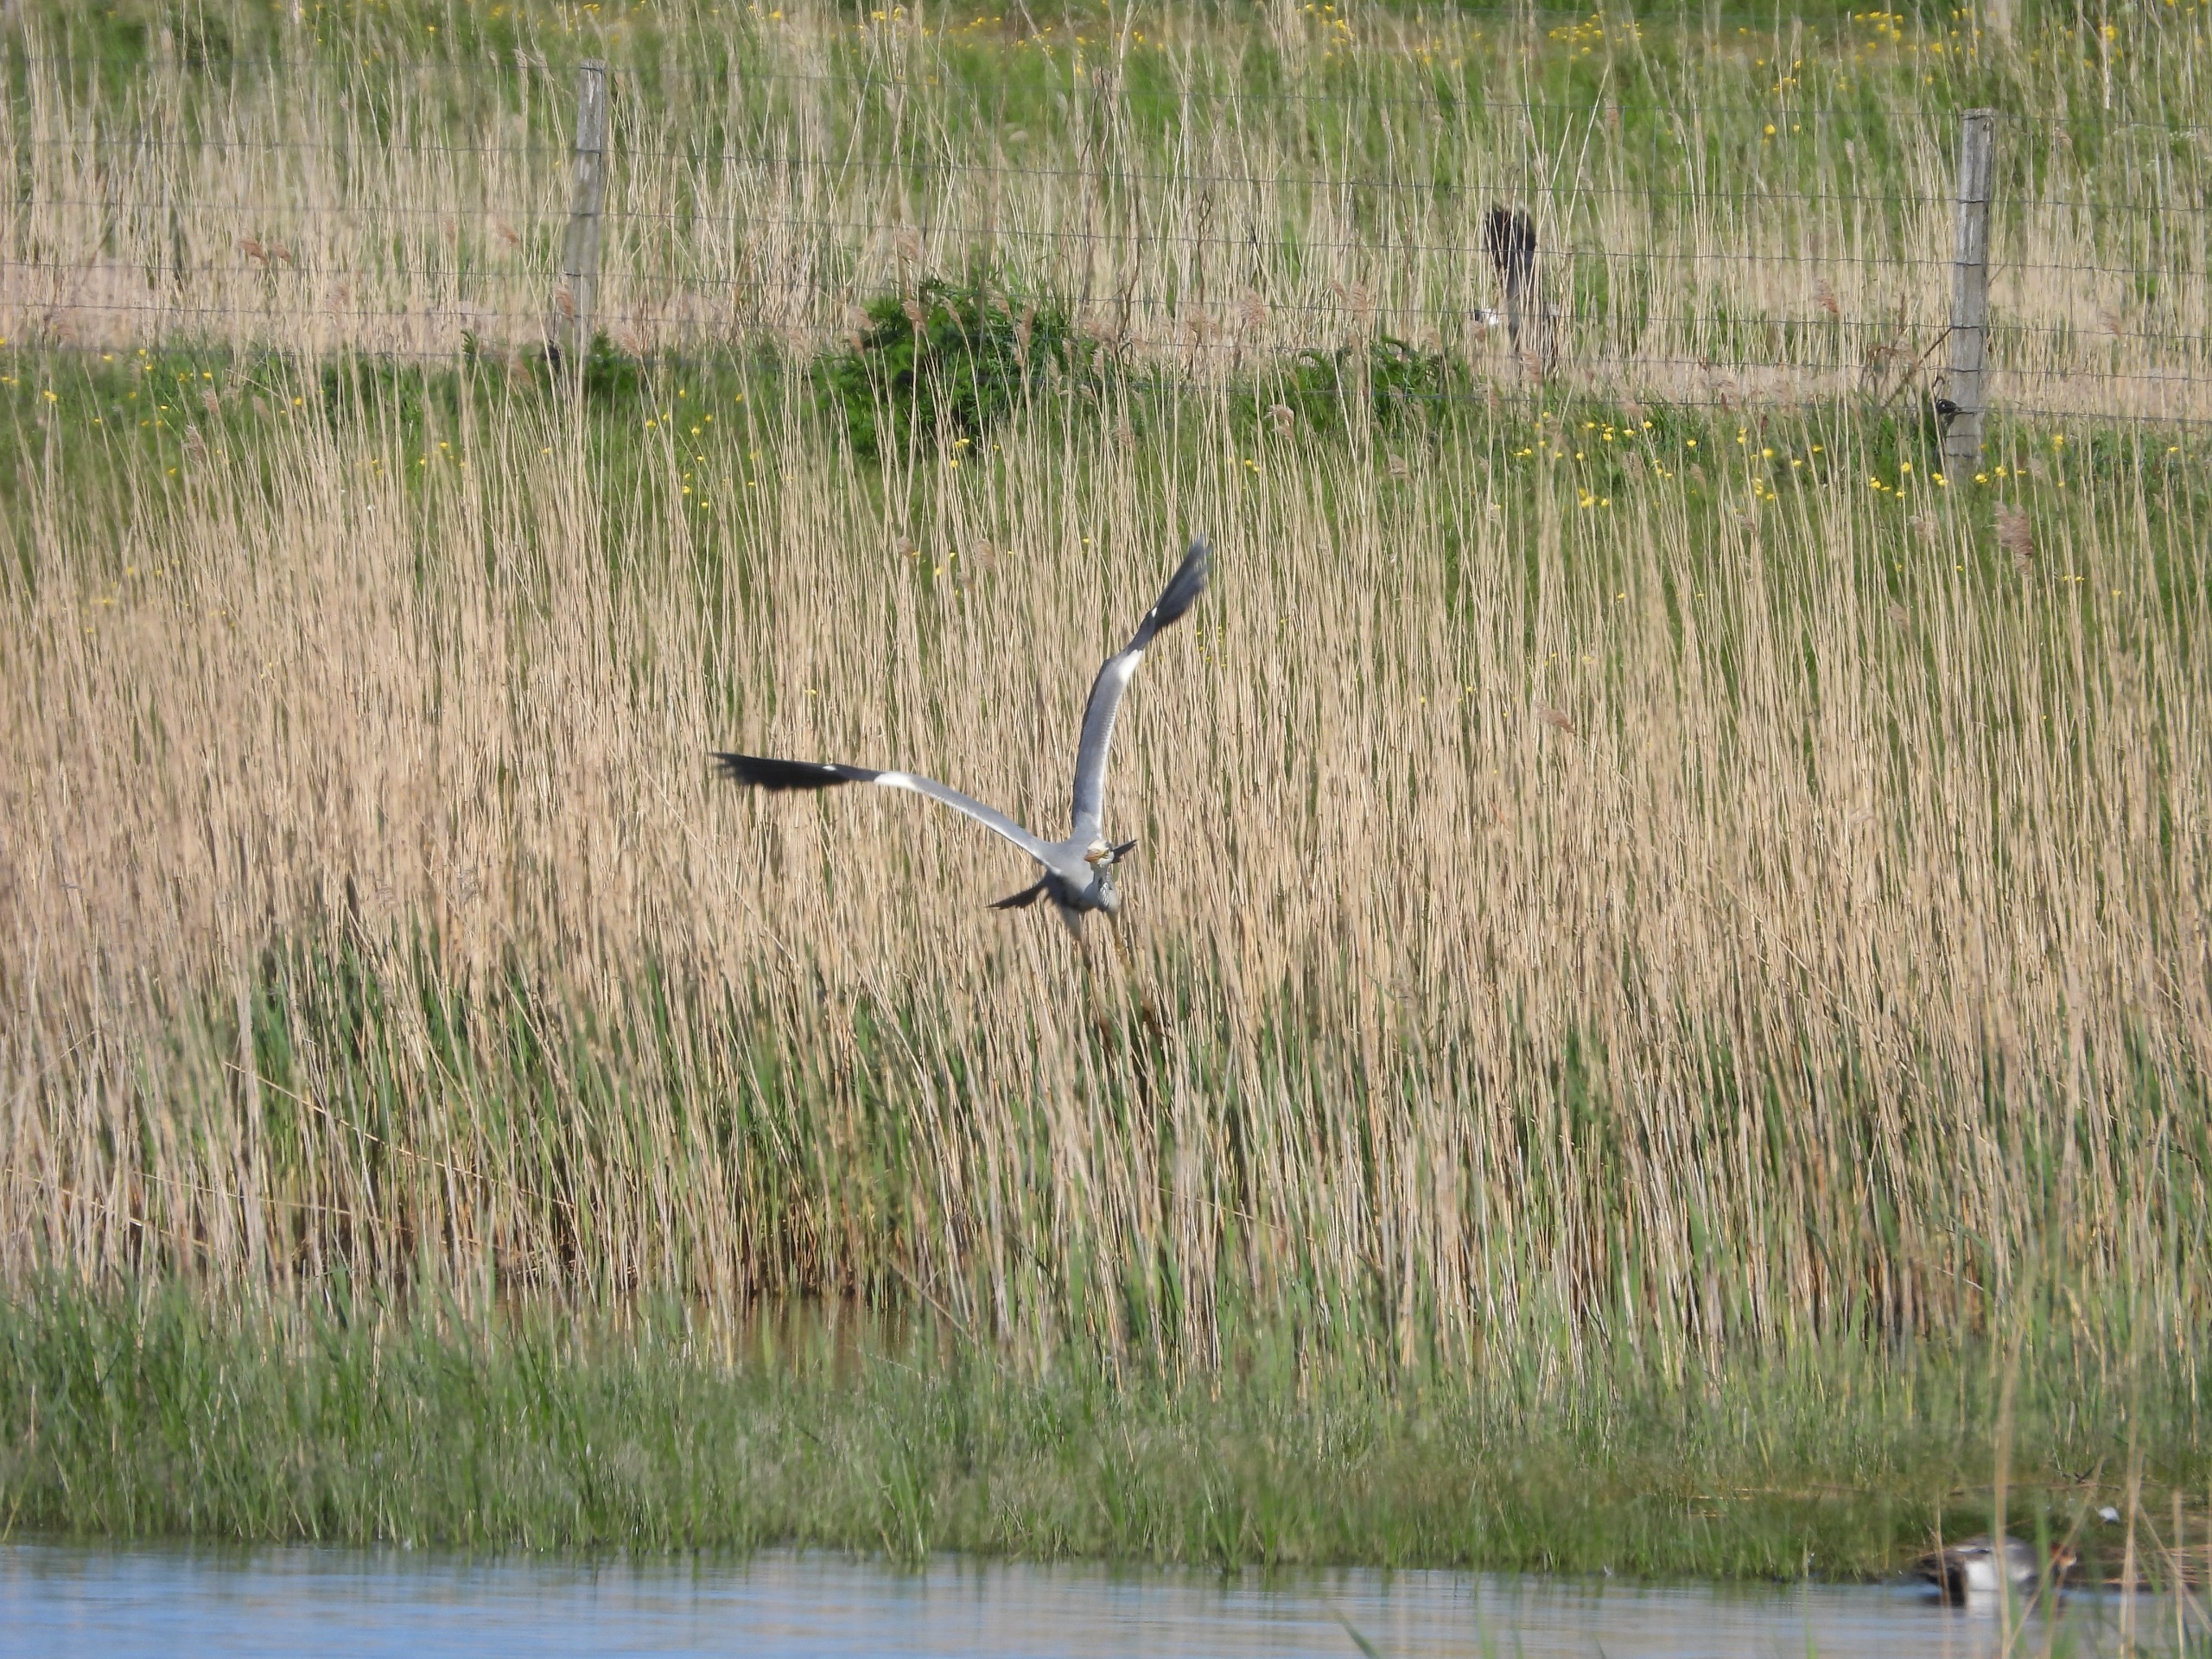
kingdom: Animalia
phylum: Chordata
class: Aves
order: Pelecaniformes
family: Ardeidae
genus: Ardea
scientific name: Ardea cinerea
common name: Fiskehejre
